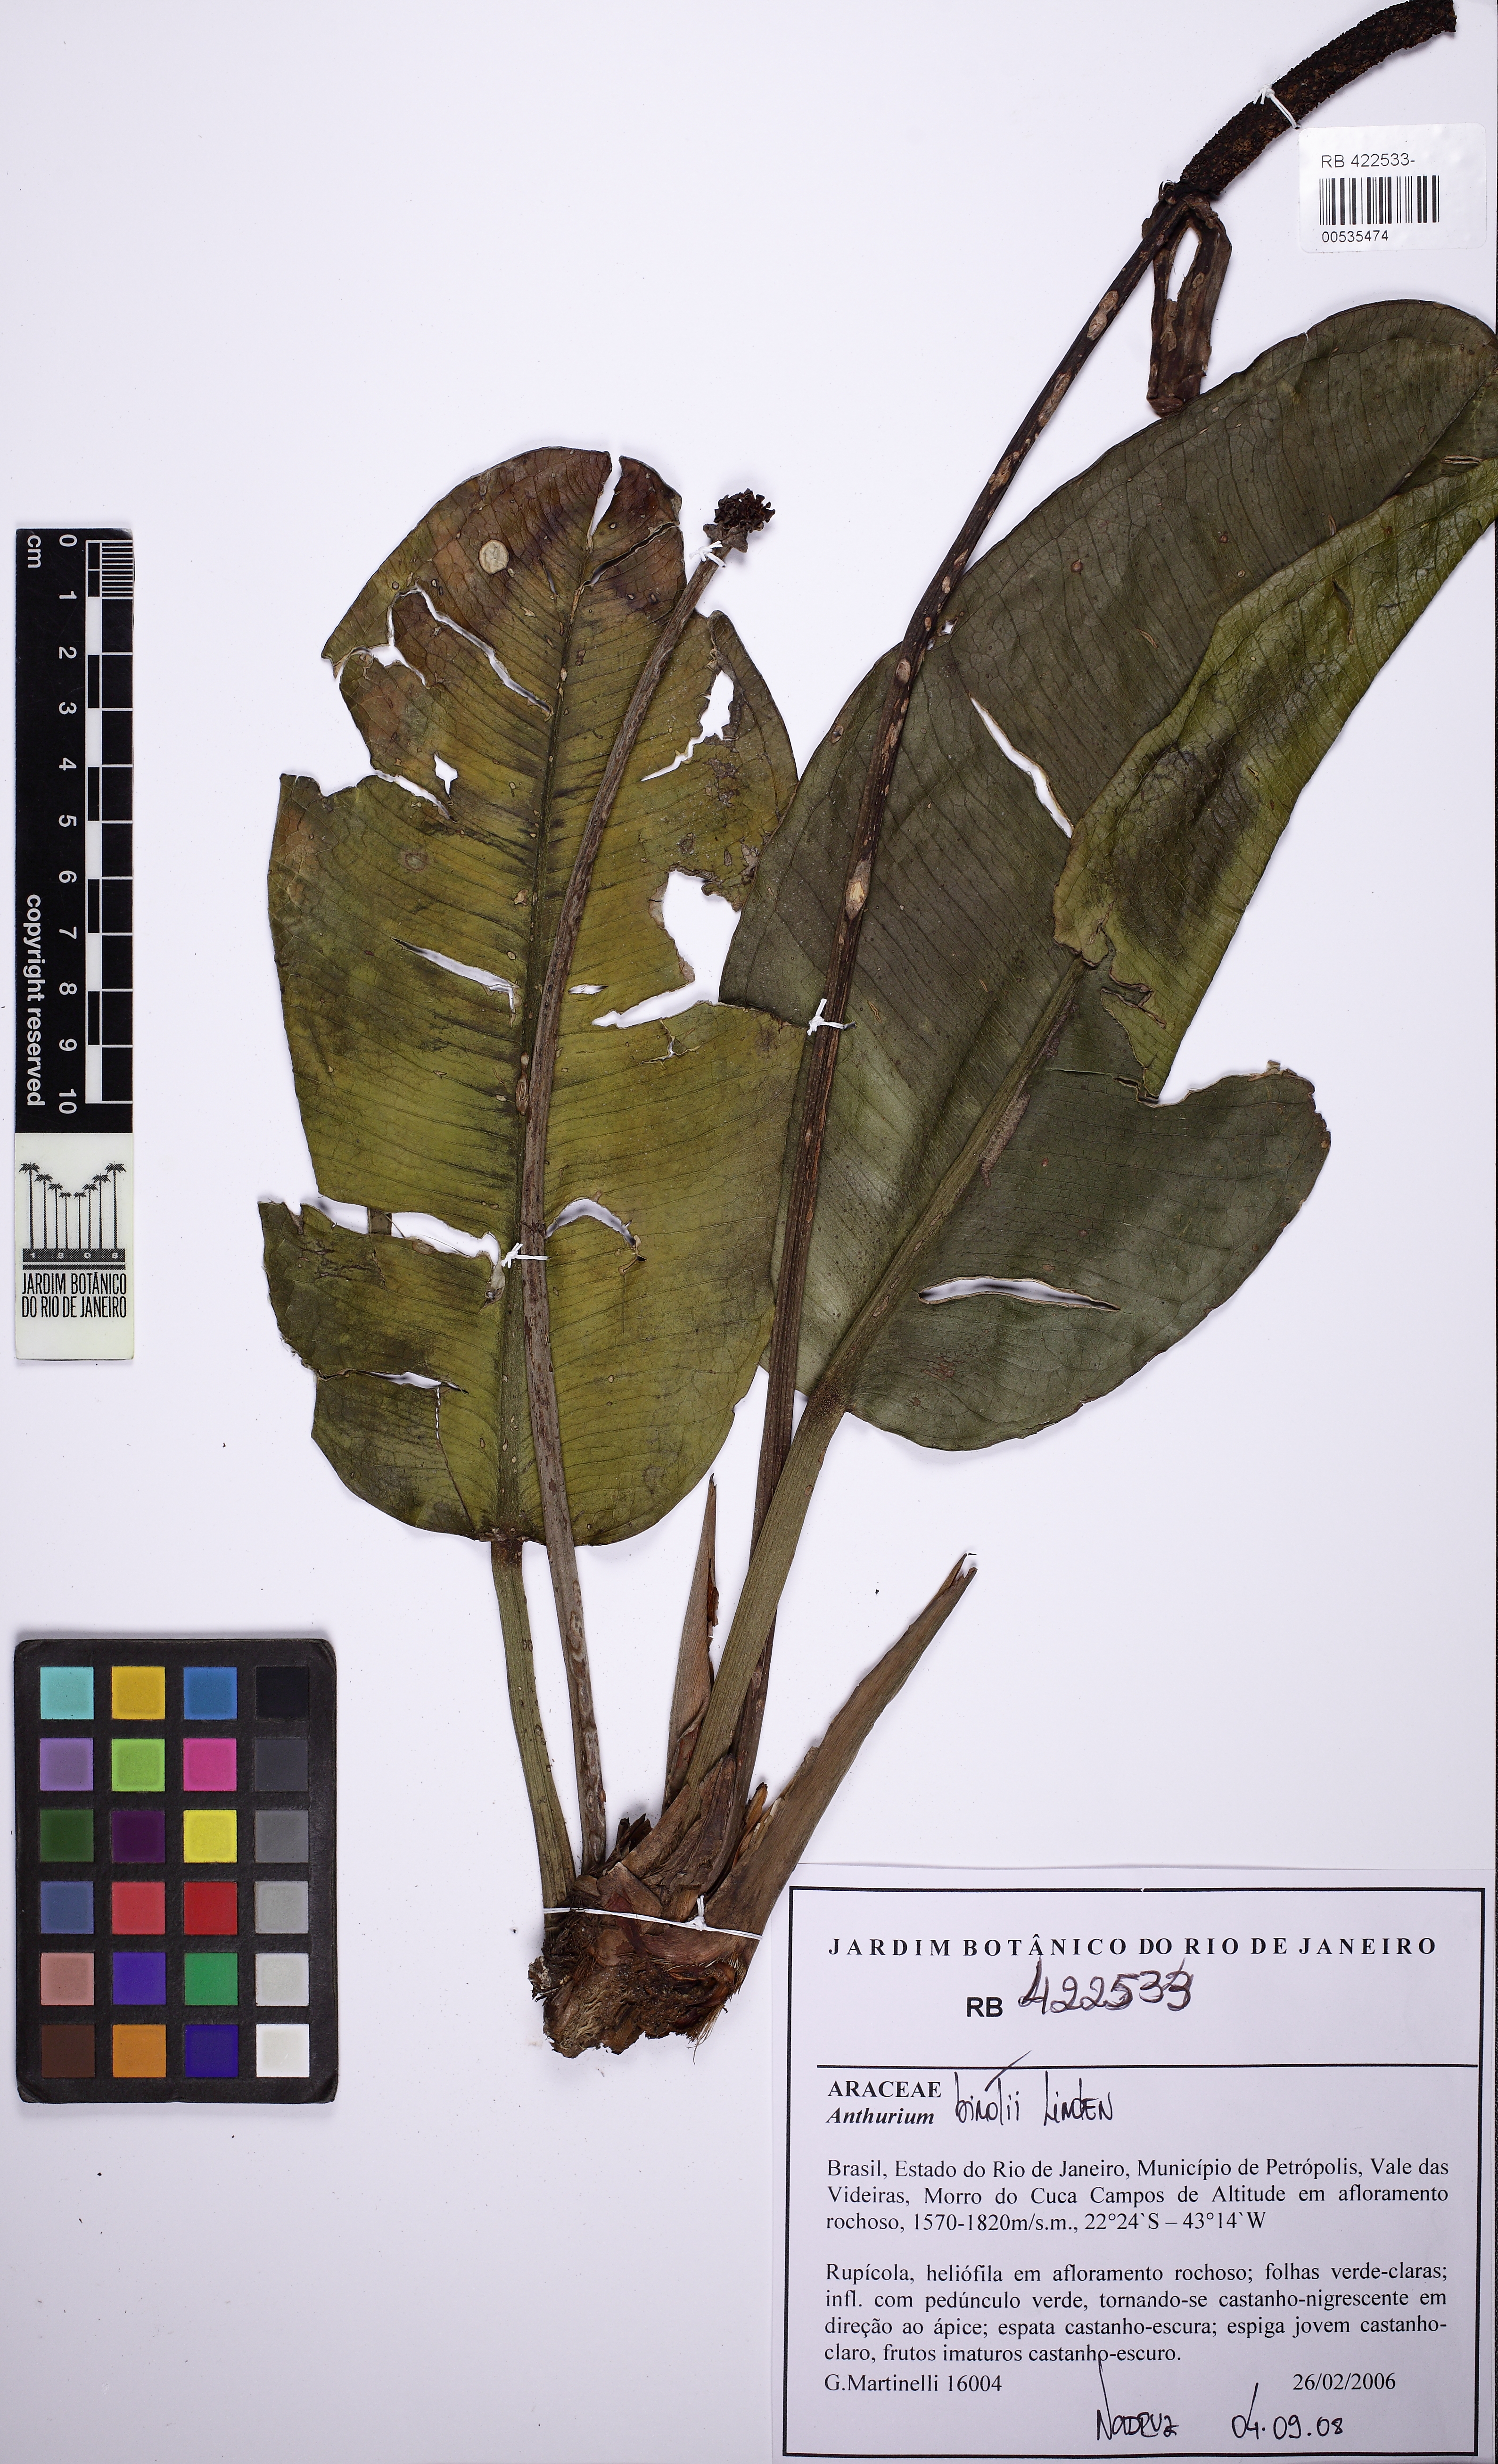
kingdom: Plantae
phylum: Tracheophyta
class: Liliopsida
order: Alismatales
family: Araceae
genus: Anthurium
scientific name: Anthurium binotii
